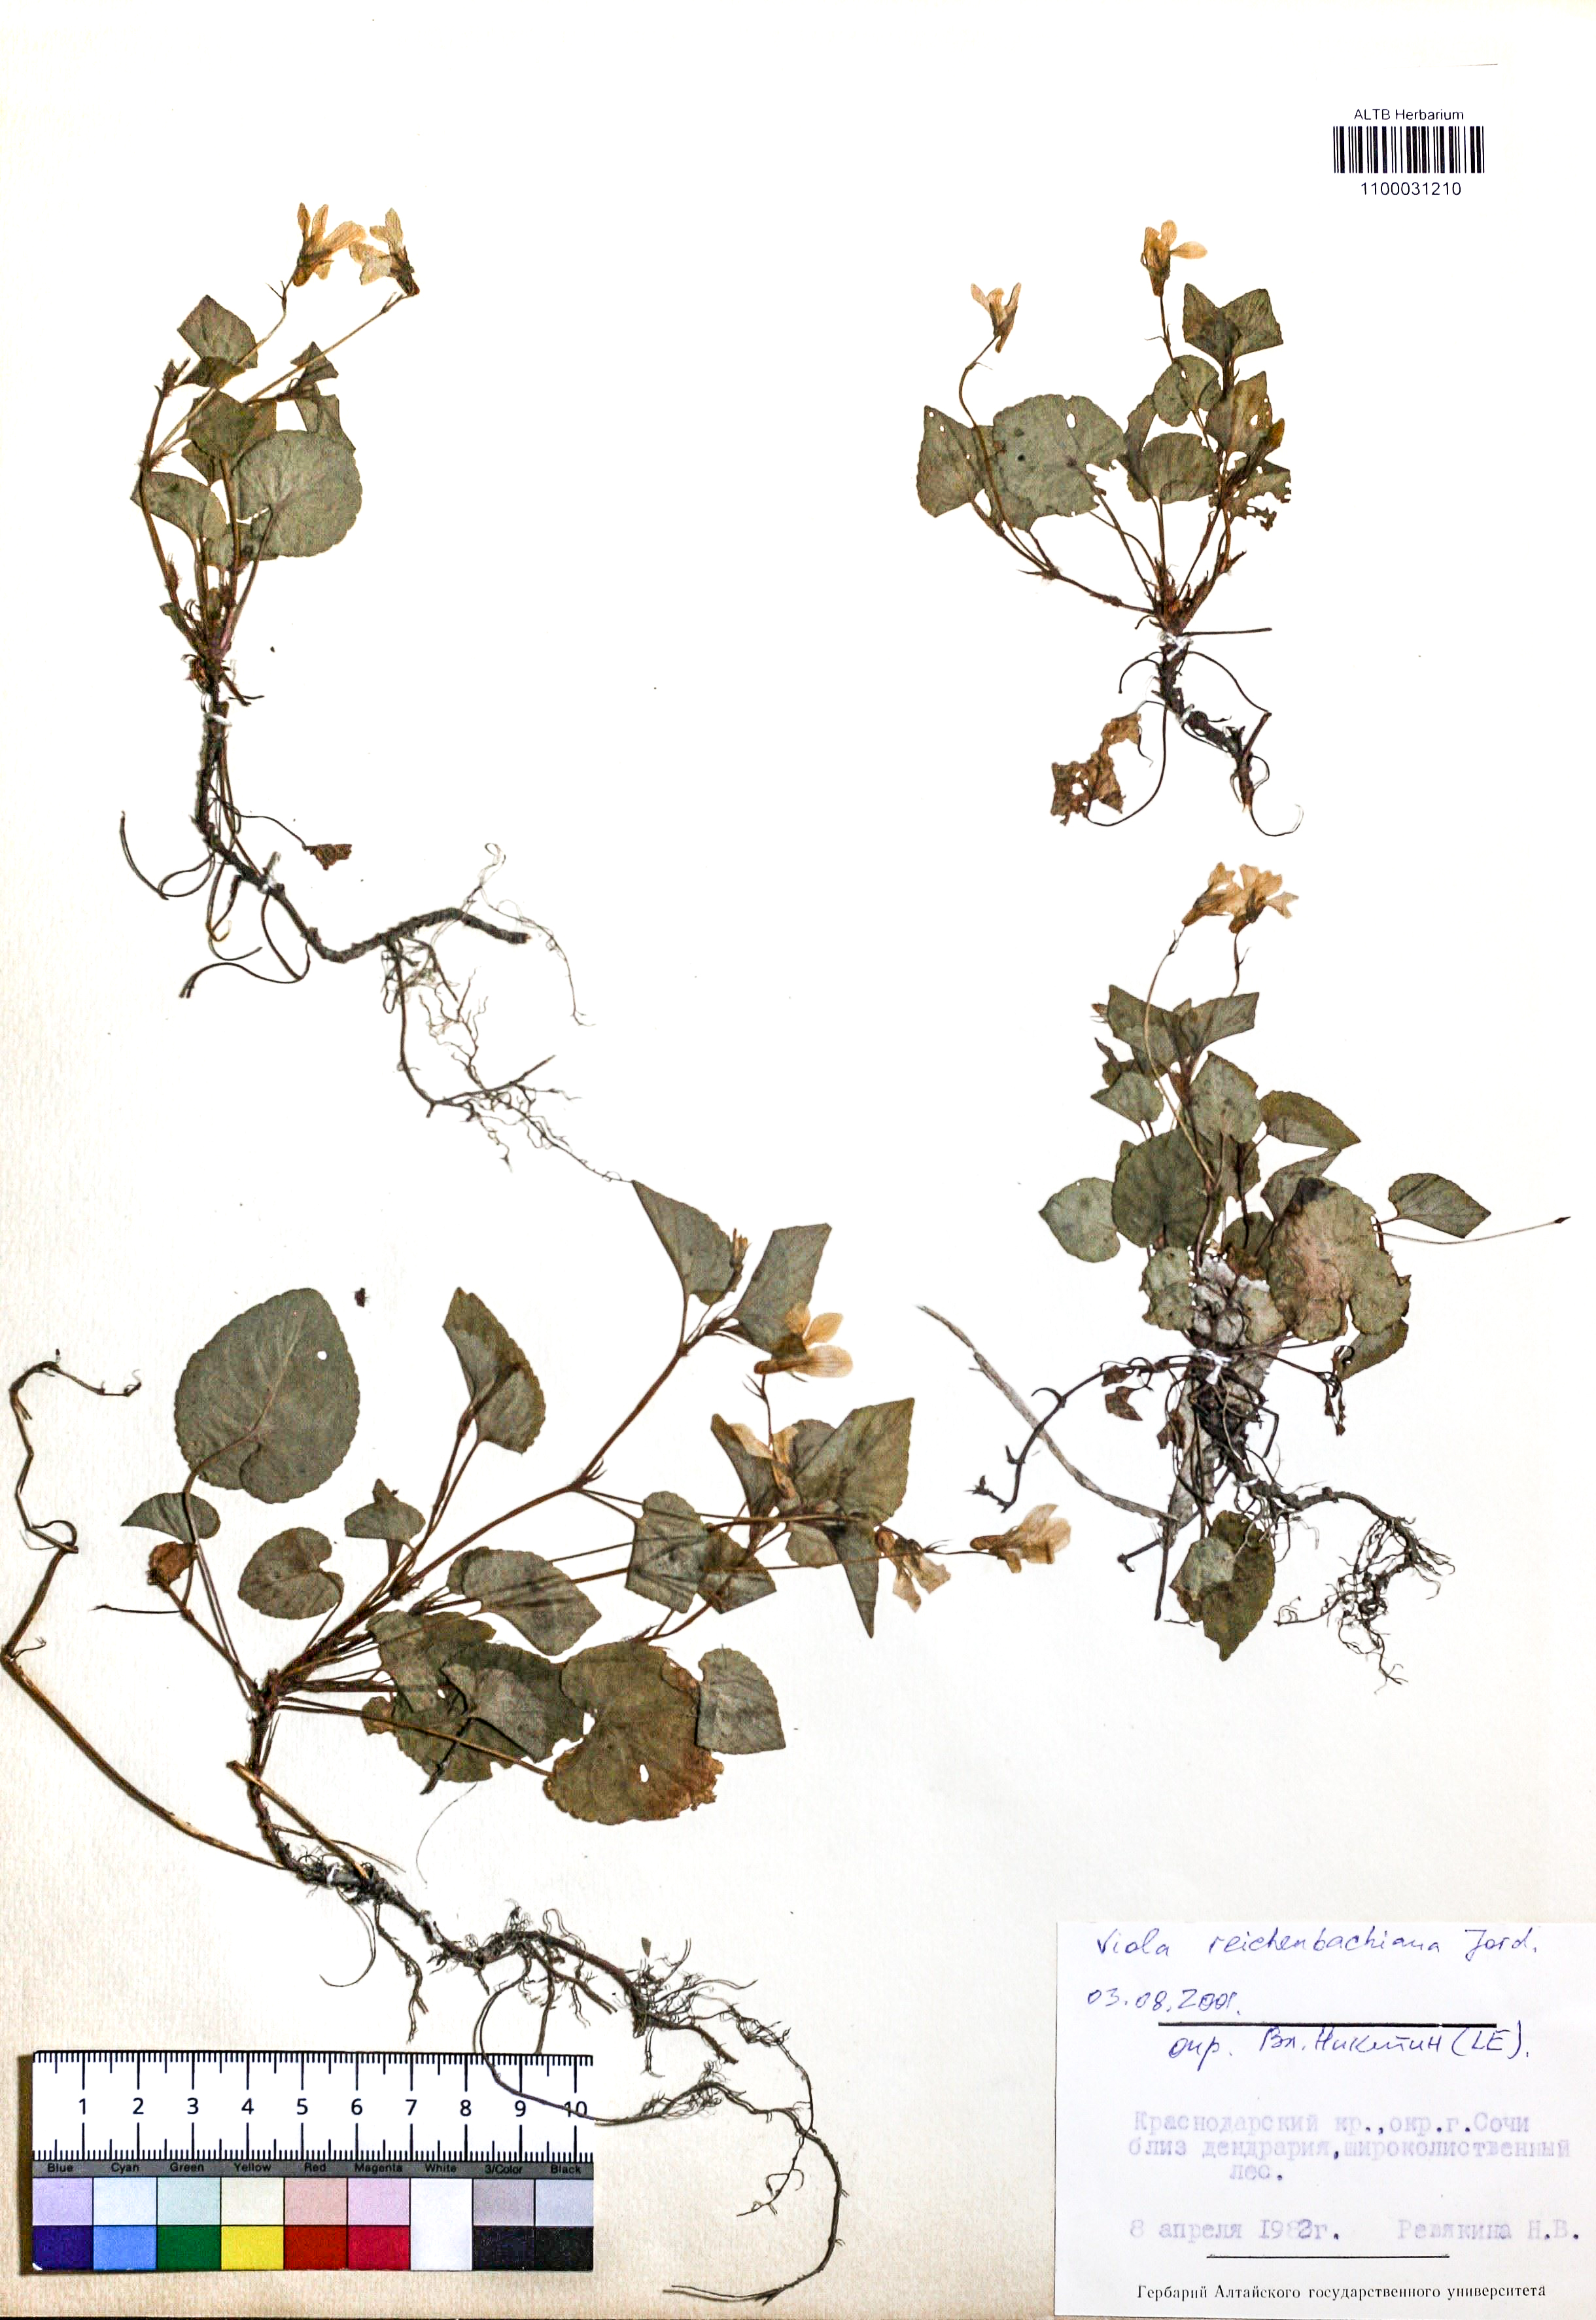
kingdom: Plantae
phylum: Tracheophyta
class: Magnoliopsida
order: Malpighiales
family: Violaceae
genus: Viola
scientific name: Viola reichenbachiana
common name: Early dog-violet
